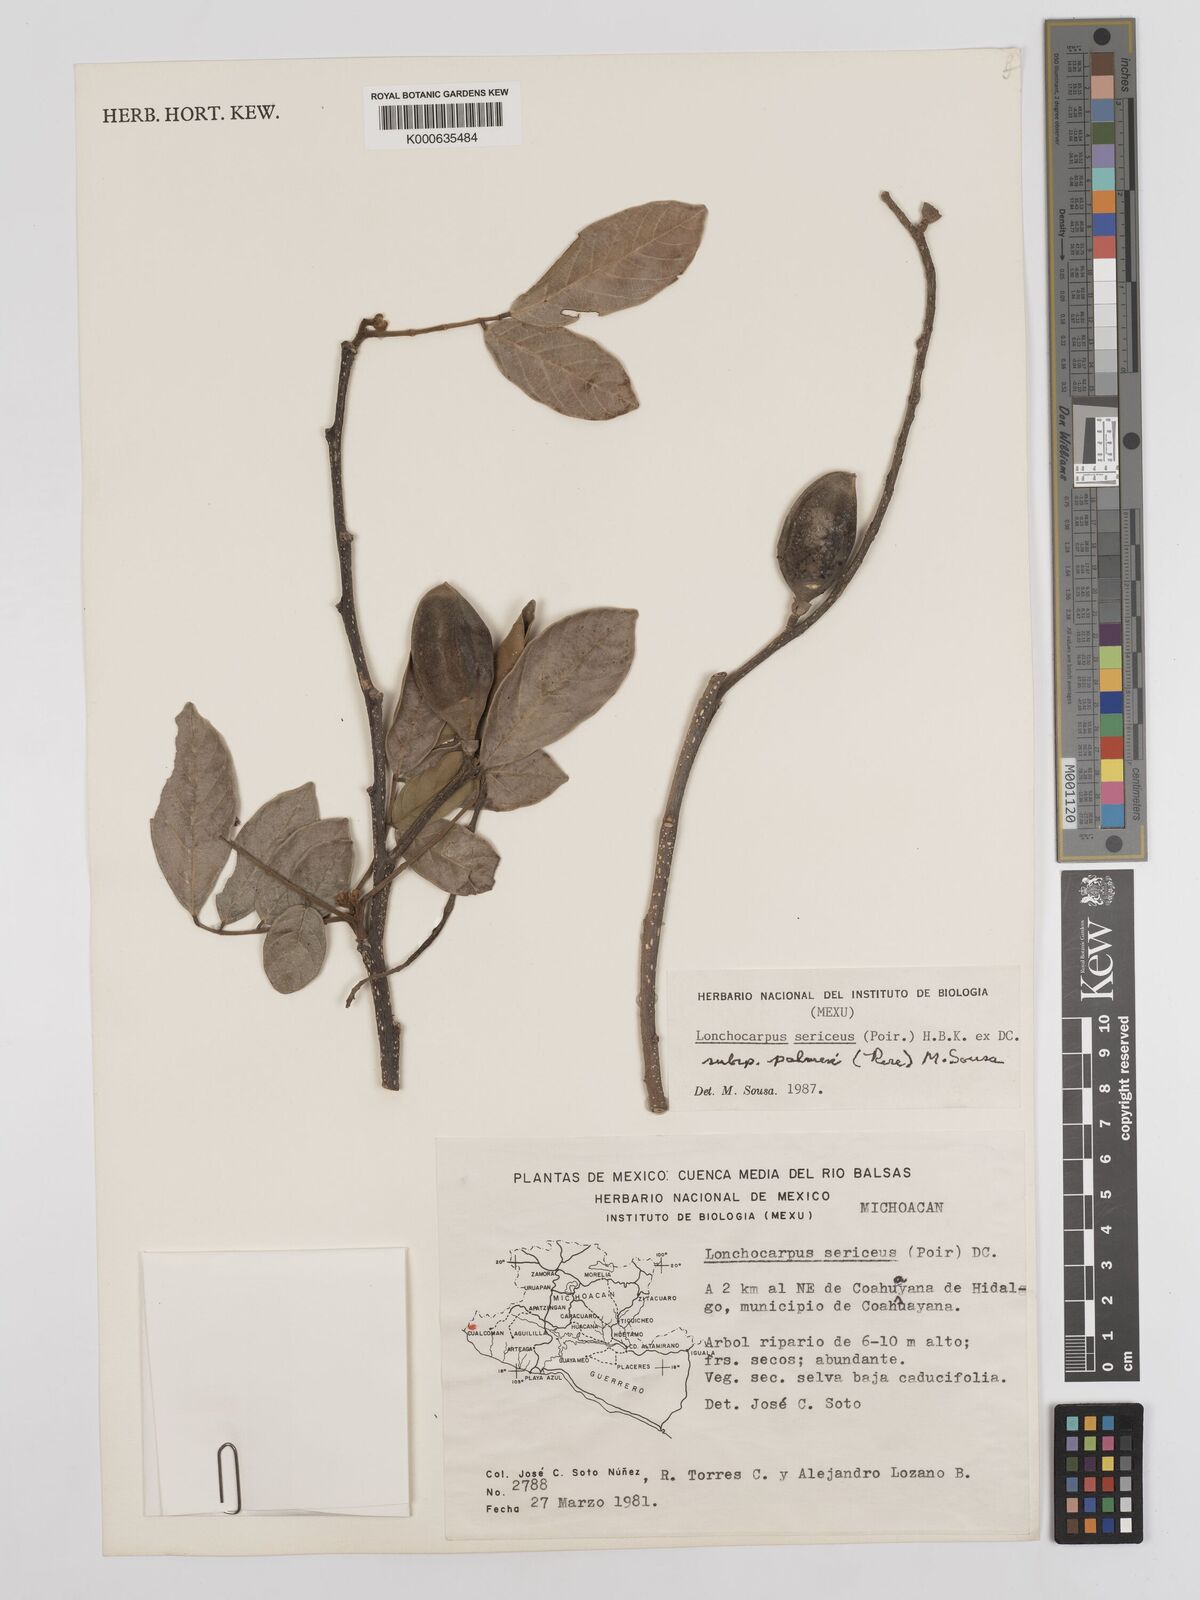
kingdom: Plantae
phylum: Tracheophyta
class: Magnoliopsida
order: Fabales
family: Fabaceae
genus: Lonchocarpus
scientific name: Lonchocarpus palmeri
